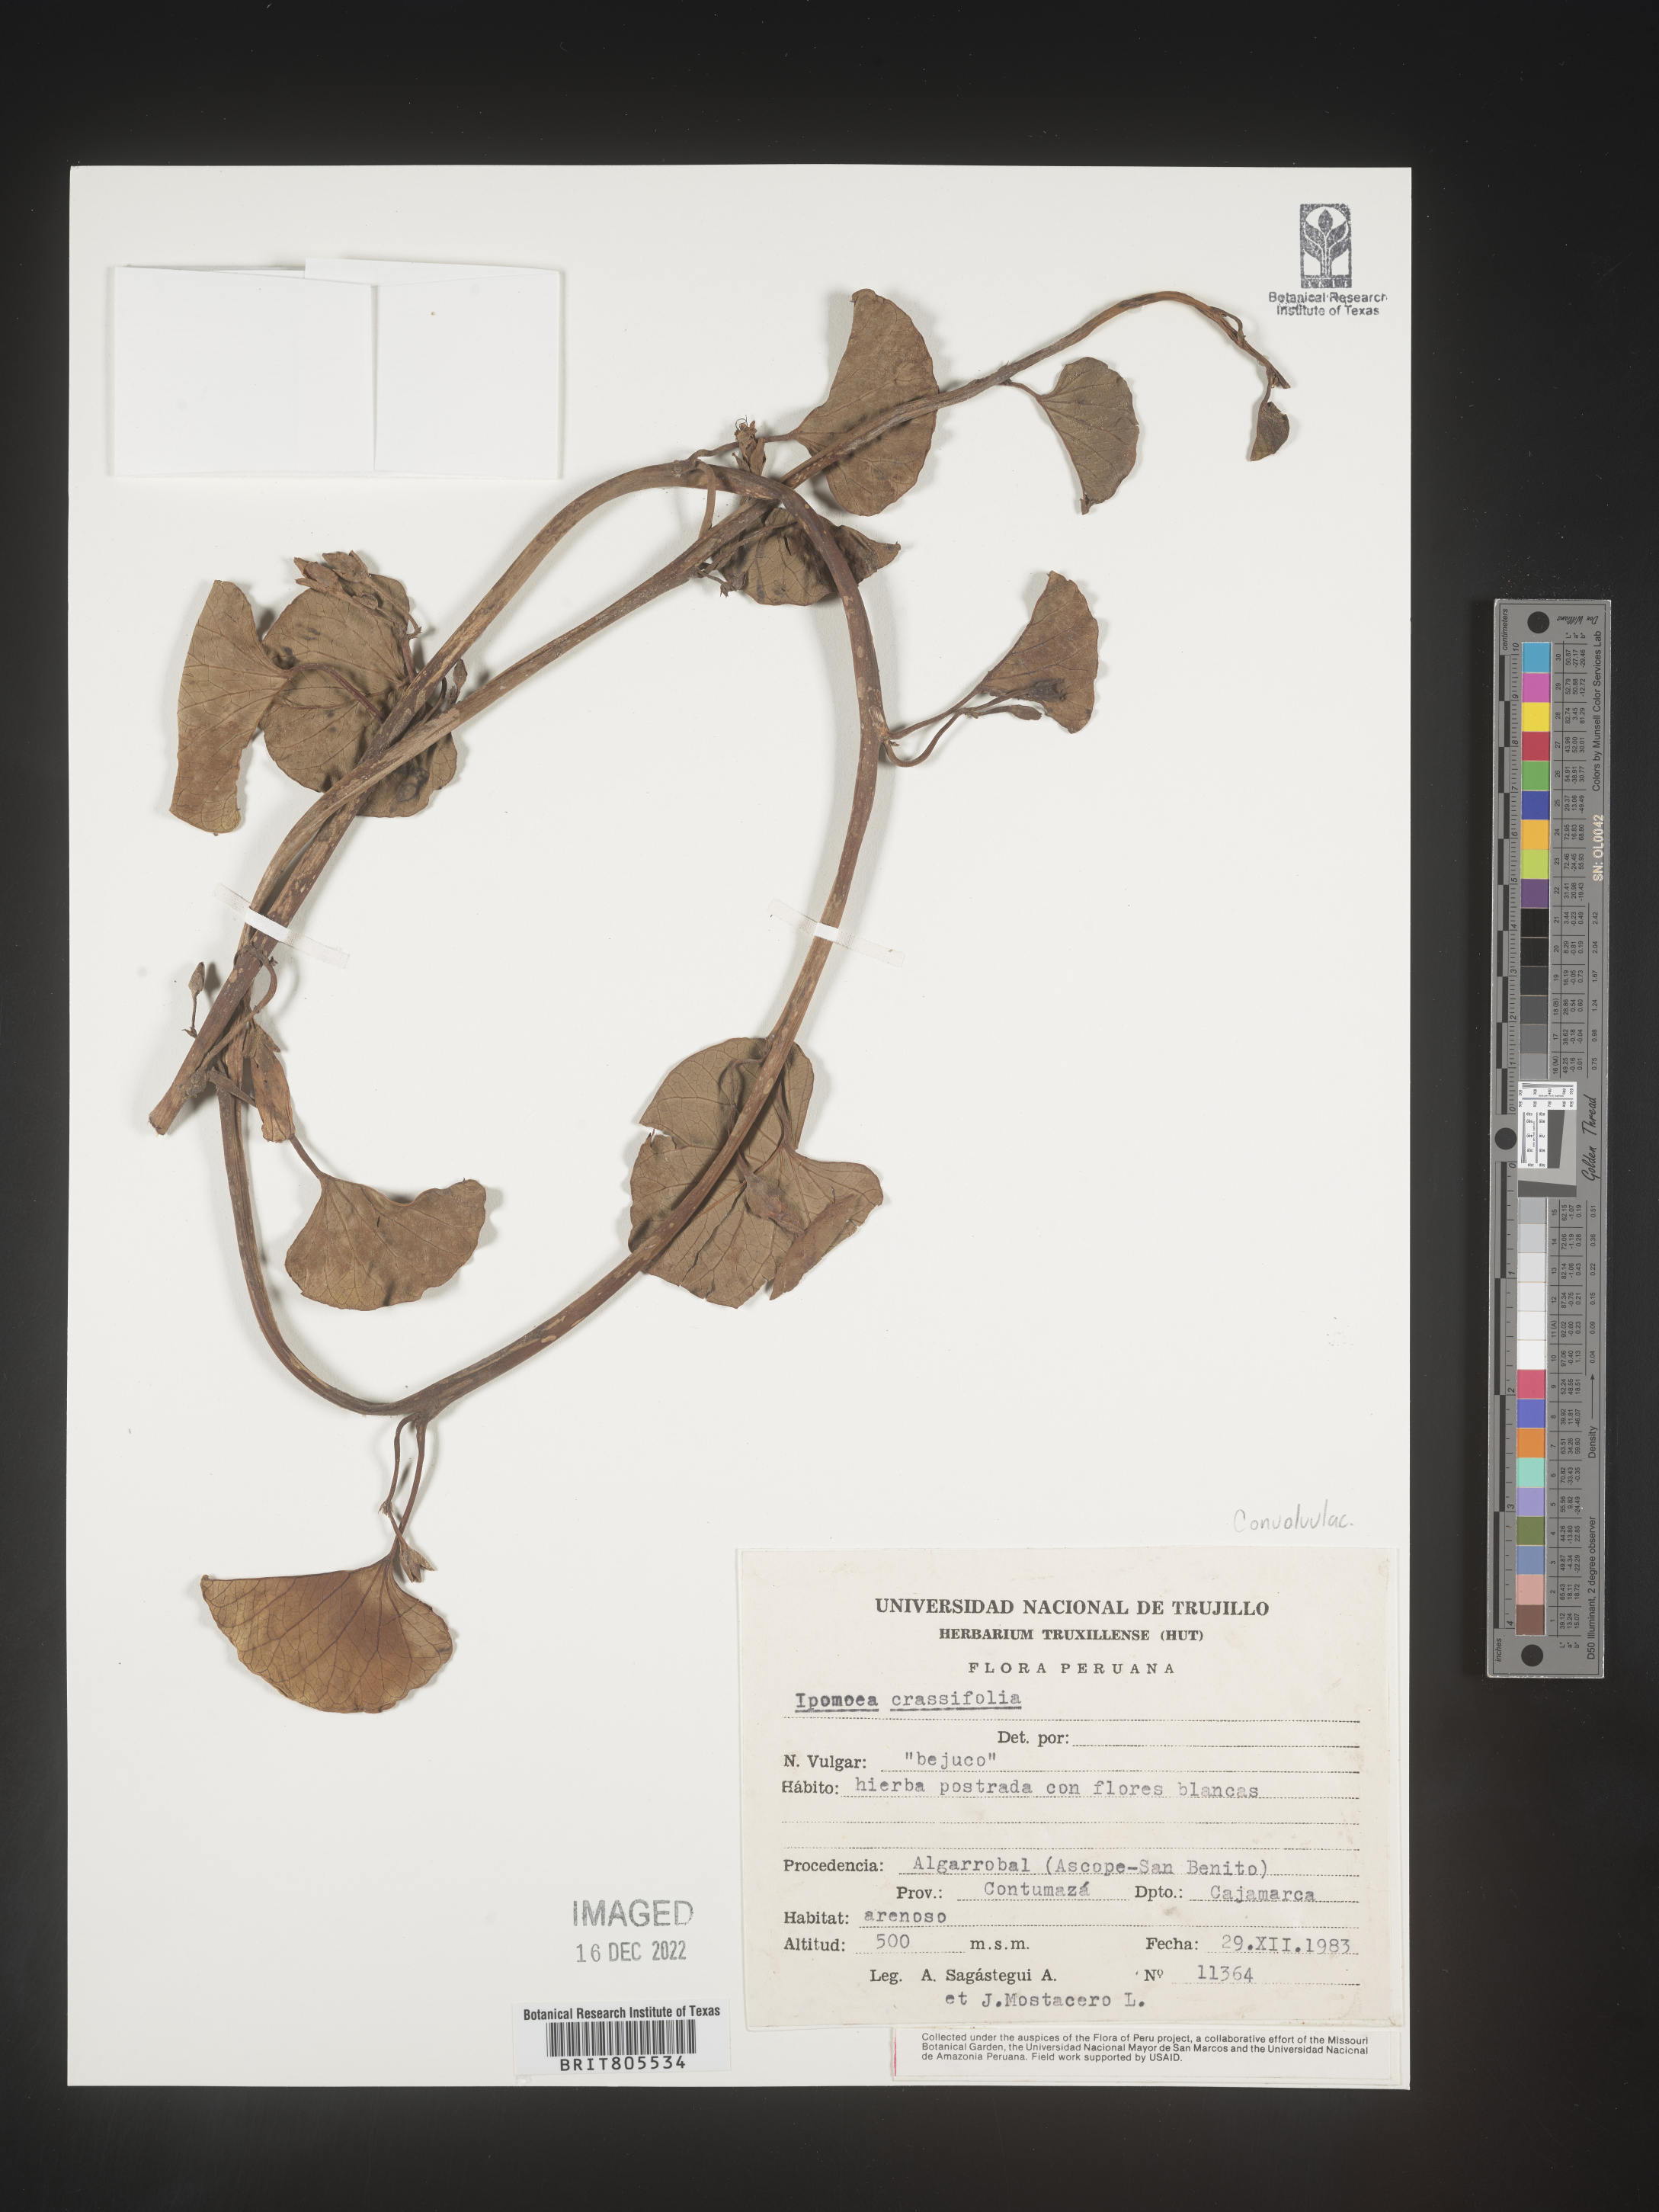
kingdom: Plantae
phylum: Tracheophyta
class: Magnoliopsida
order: Solanales
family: Convolvulaceae
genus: Ipomoea
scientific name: Ipomoea
